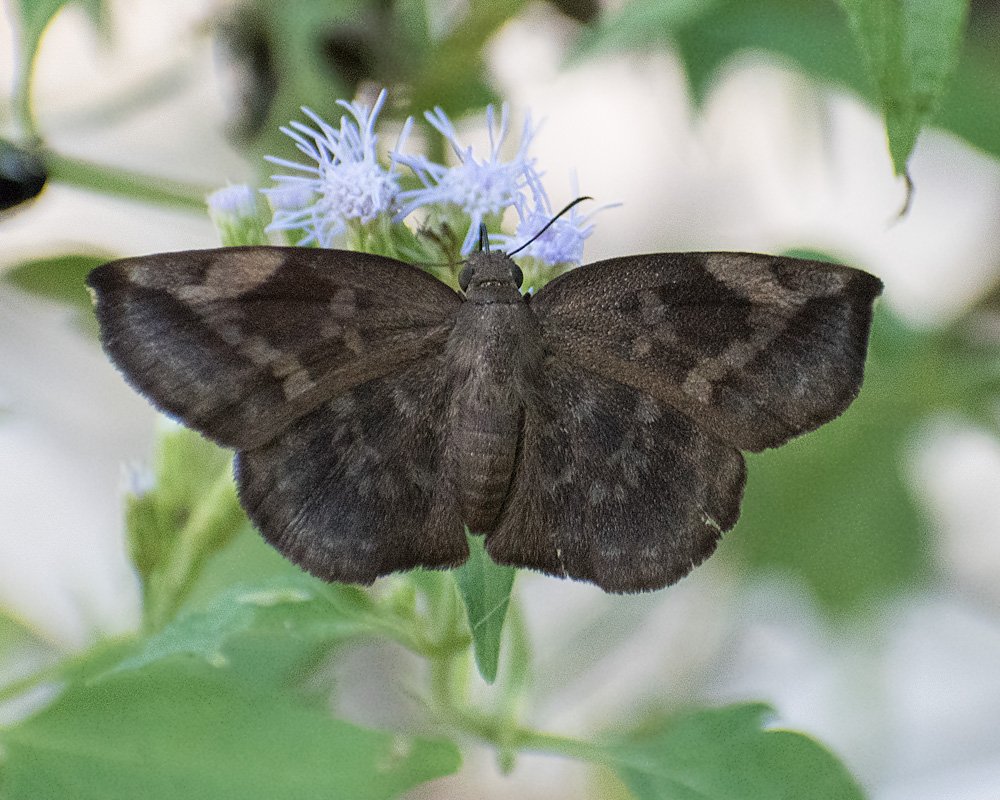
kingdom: Animalia
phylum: Arthropoda
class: Insecta
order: Lepidoptera
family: Hesperiidae
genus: Achlyodes
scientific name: Achlyodes thraso
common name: Sickle-winged Skipper
